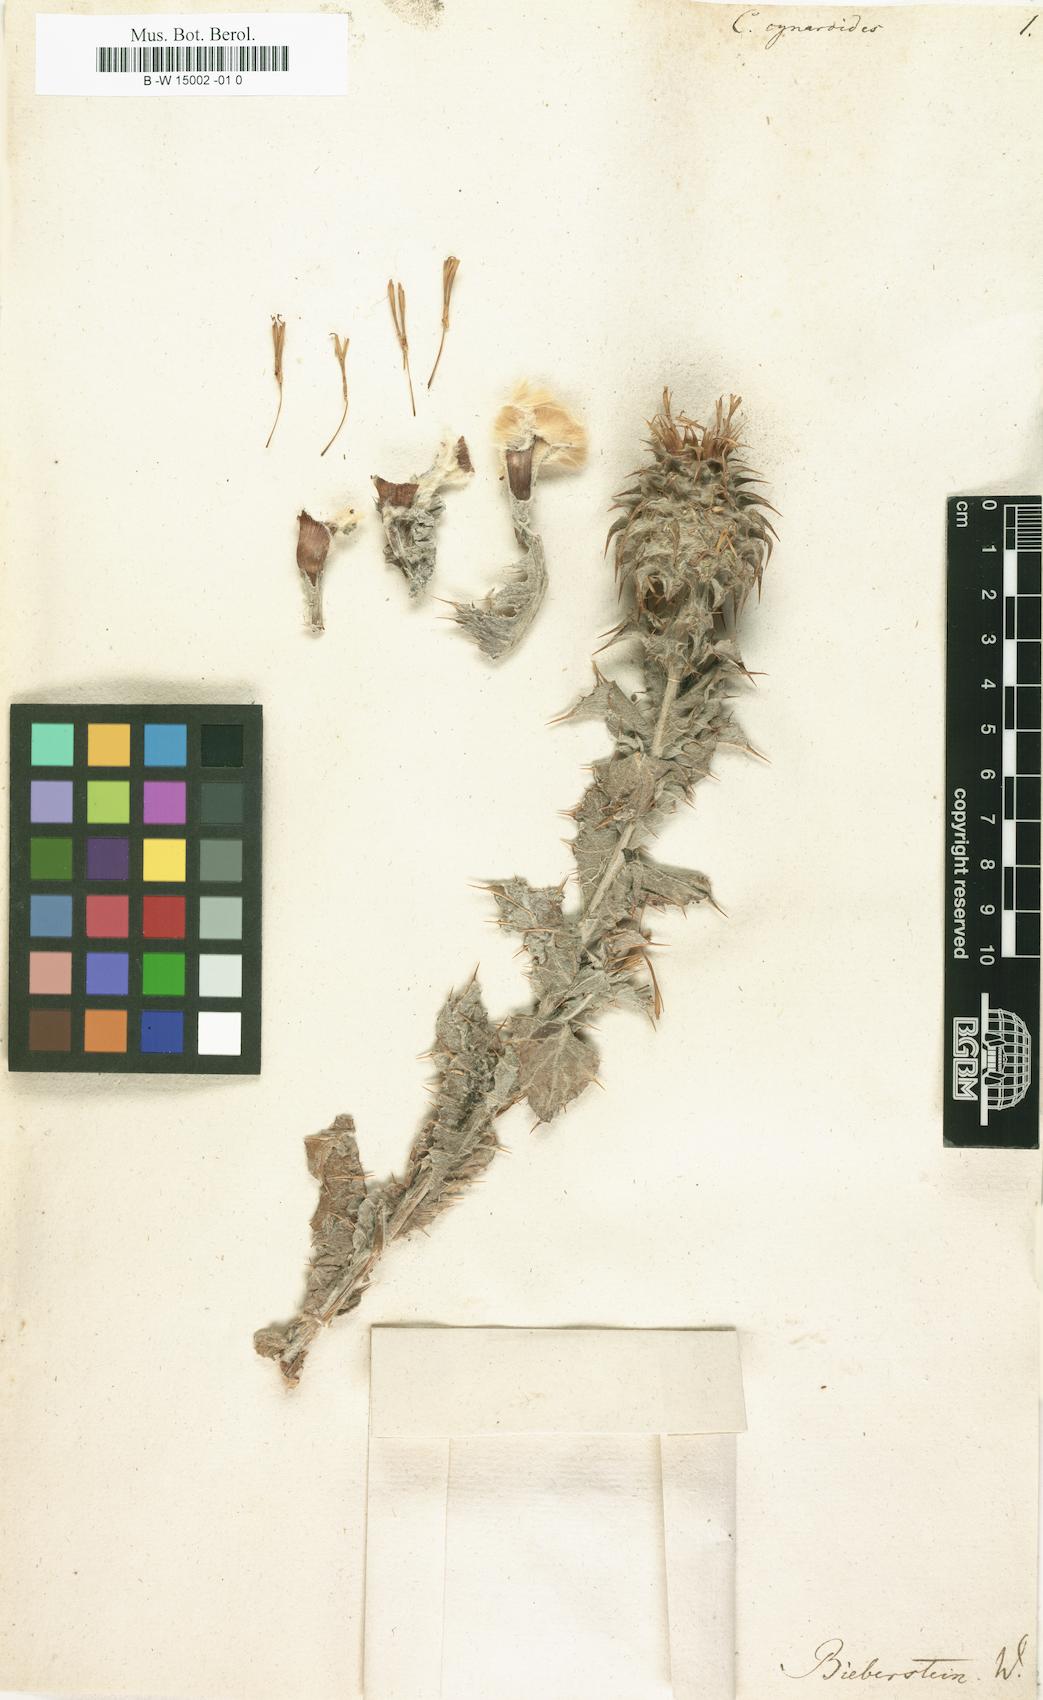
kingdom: Plantae
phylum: Tracheophyta
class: Magnoliopsida
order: Asterales
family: Asteraceae
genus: Cousinia
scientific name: Cousinia cynaroides
